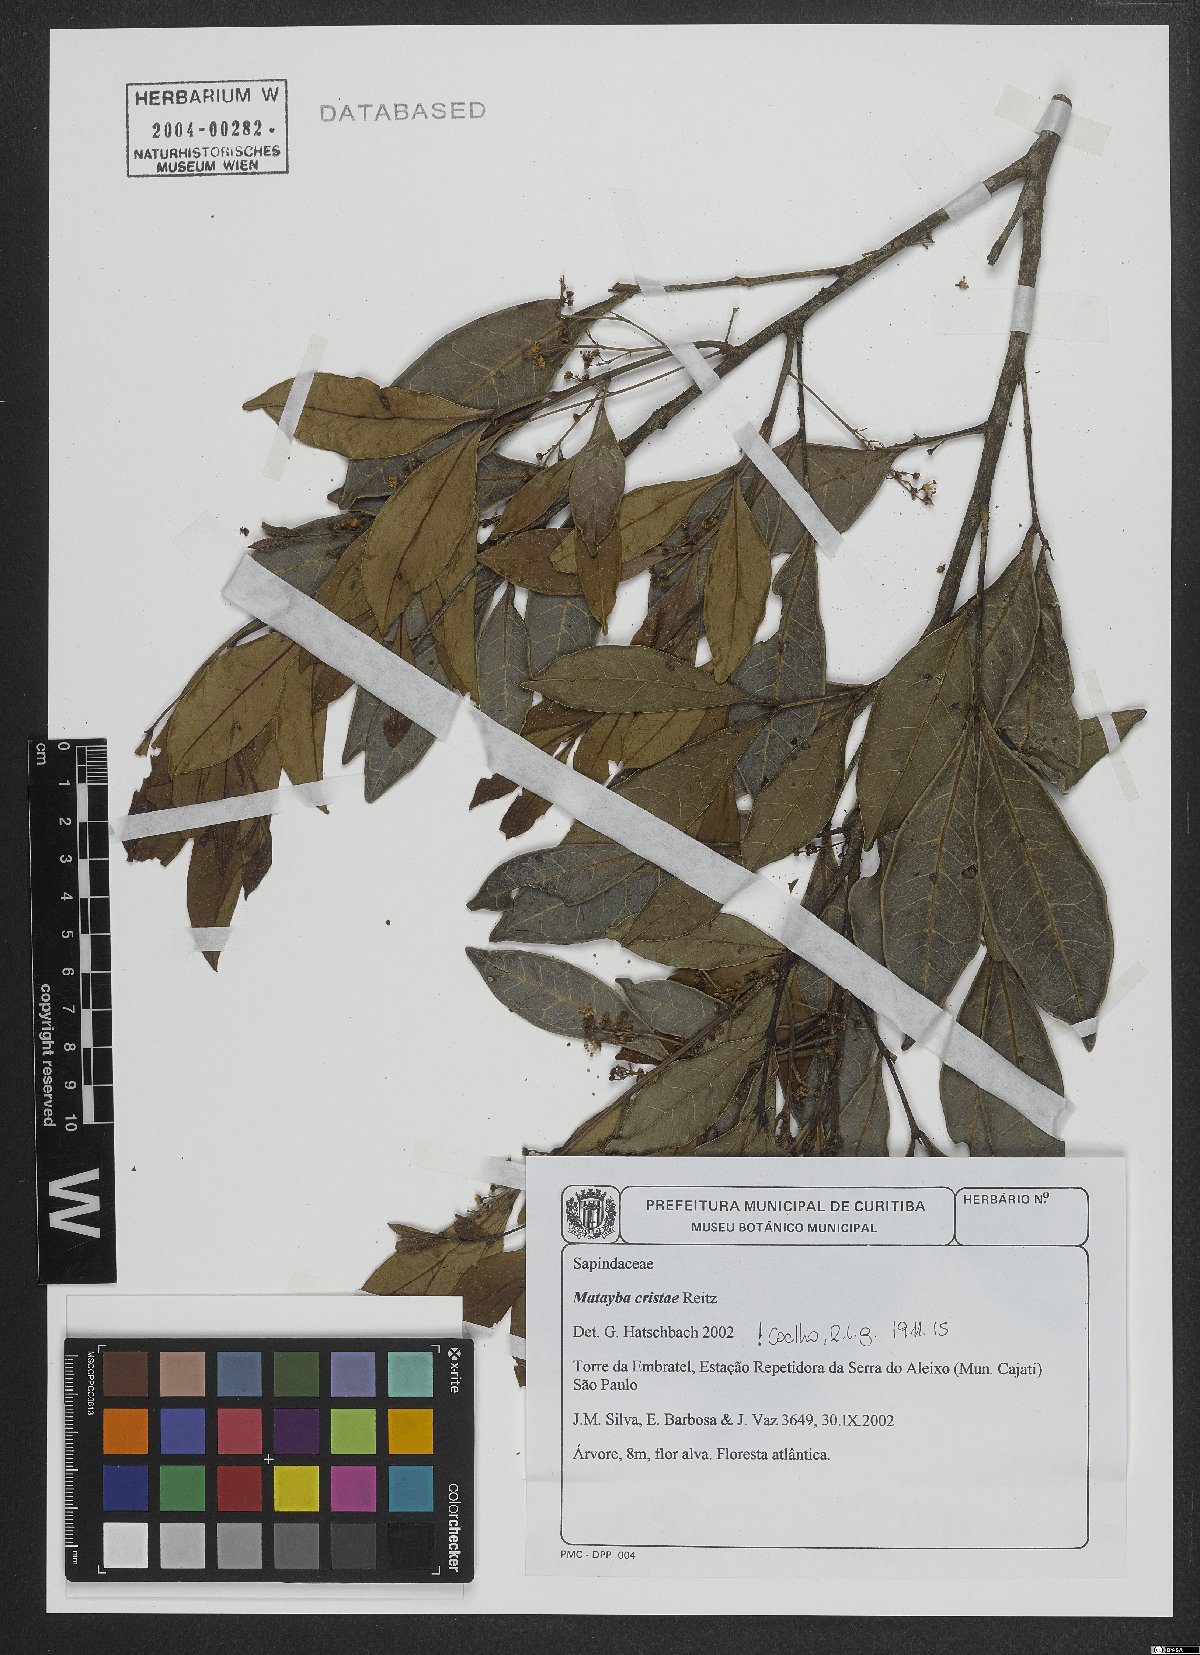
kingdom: Plantae
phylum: Tracheophyta
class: Magnoliopsida
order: Sapindales
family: Sapindaceae
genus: Matayba
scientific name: Matayba cristae
